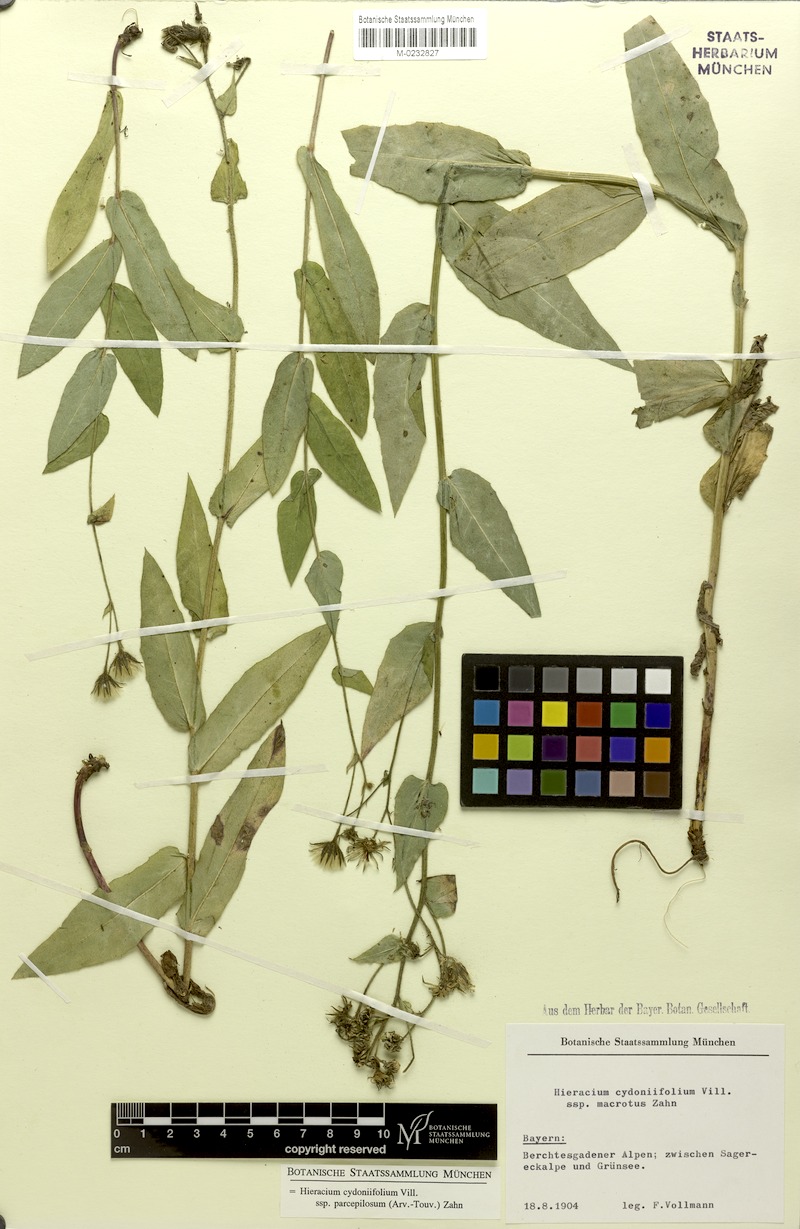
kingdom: Plantae
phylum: Tracheophyta
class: Magnoliopsida
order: Asterales
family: Asteraceae
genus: Hieracium
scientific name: Hieracium cydoniifolium
